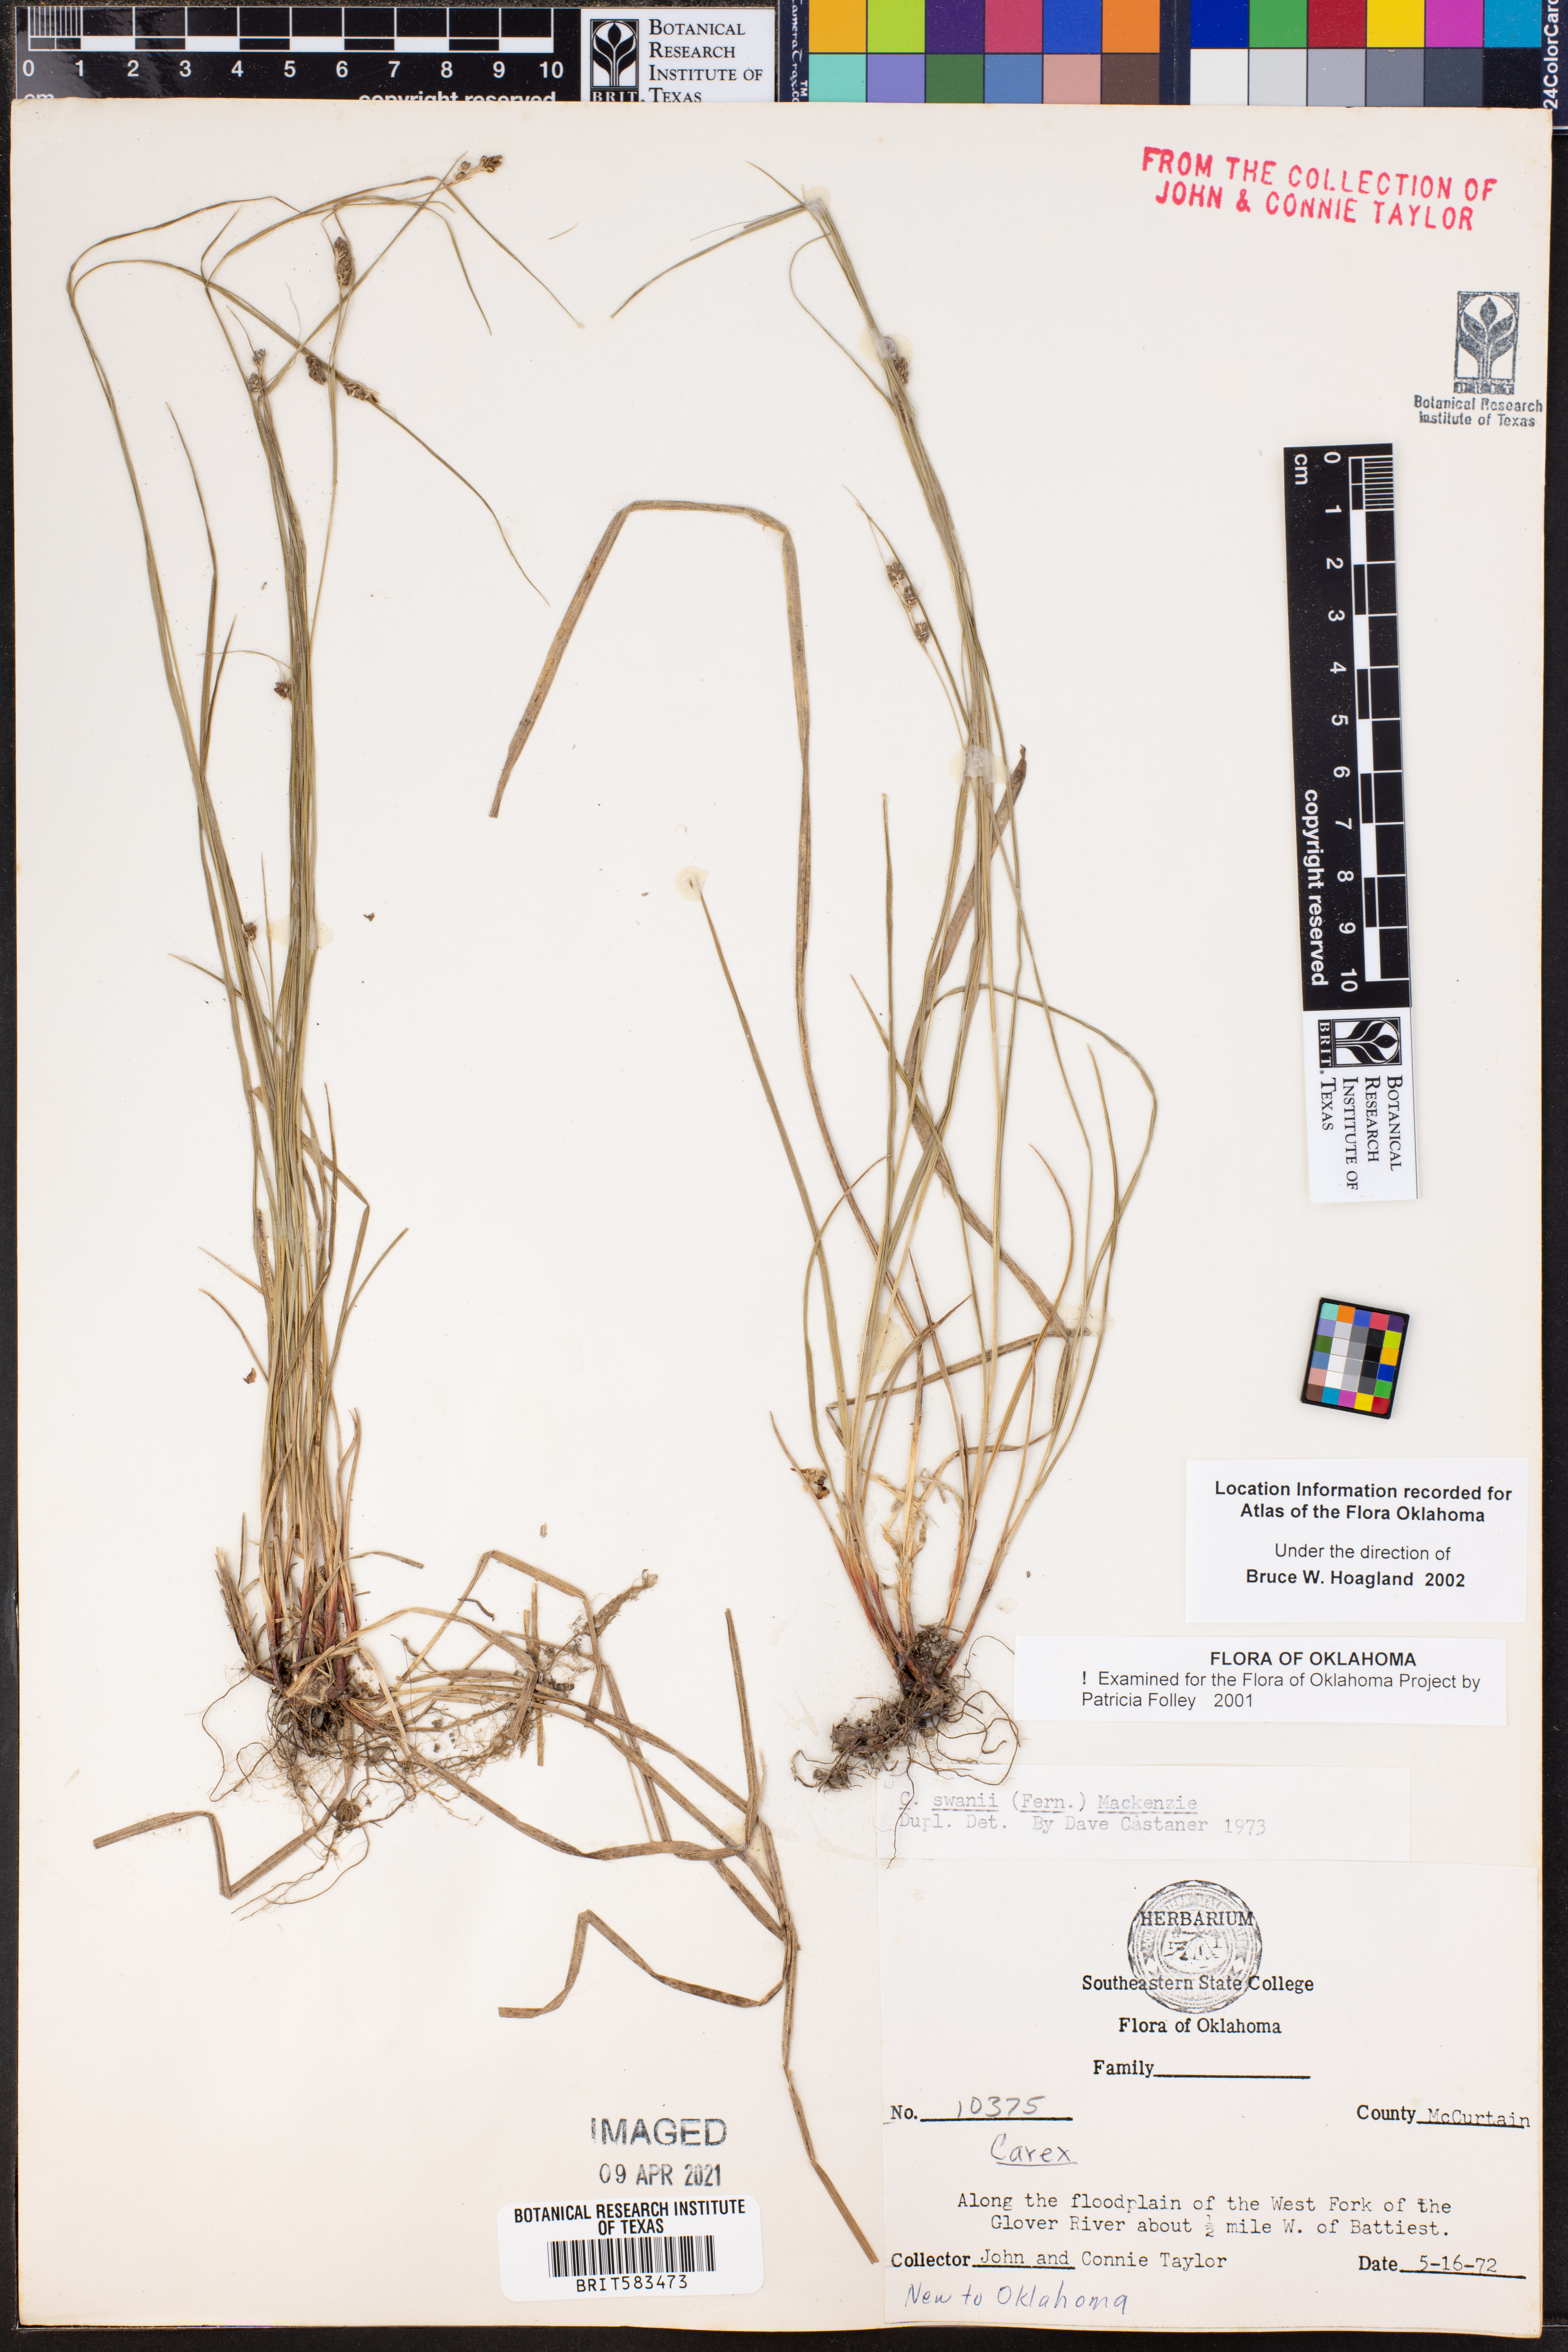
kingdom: Plantae
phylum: Tracheophyta
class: Liliopsida
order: Poales
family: Cyperaceae
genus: Carex
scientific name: Carex swanii
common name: Downy green sedge
